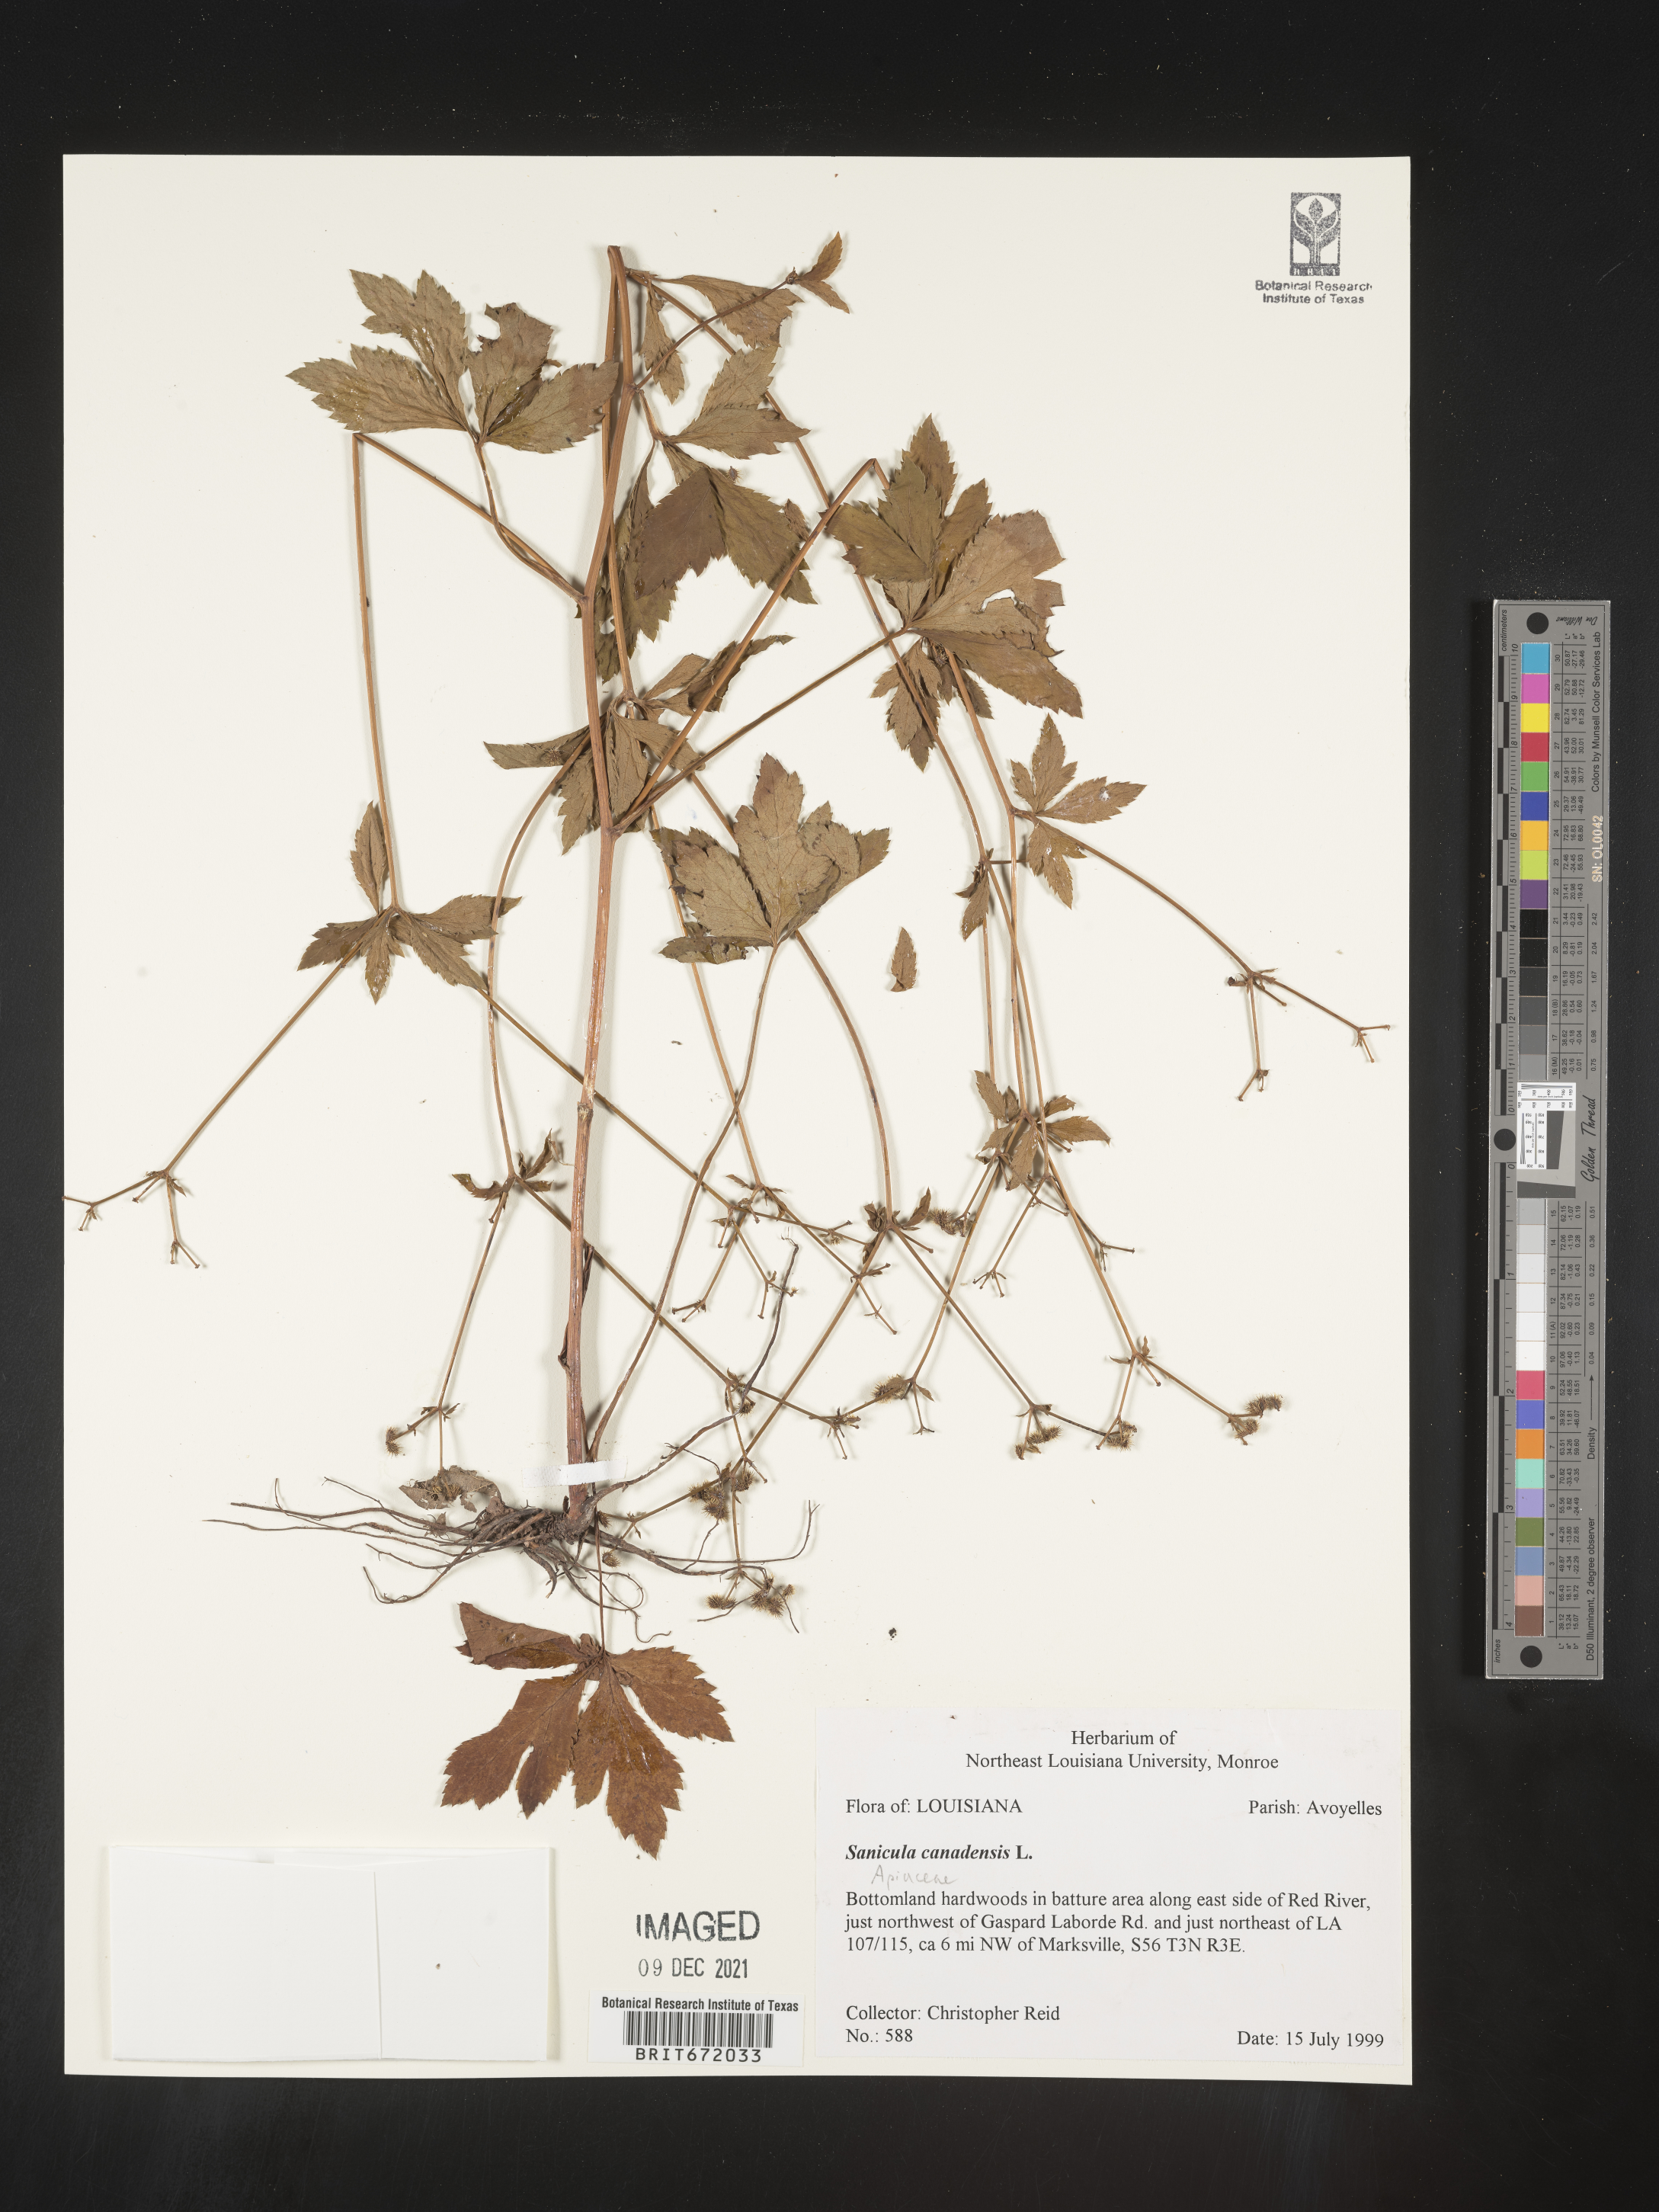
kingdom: Plantae
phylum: Tracheophyta
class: Magnoliopsida
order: Apiales
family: Apiaceae
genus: Sanicula
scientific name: Sanicula canadensis
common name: Canada sanicle
